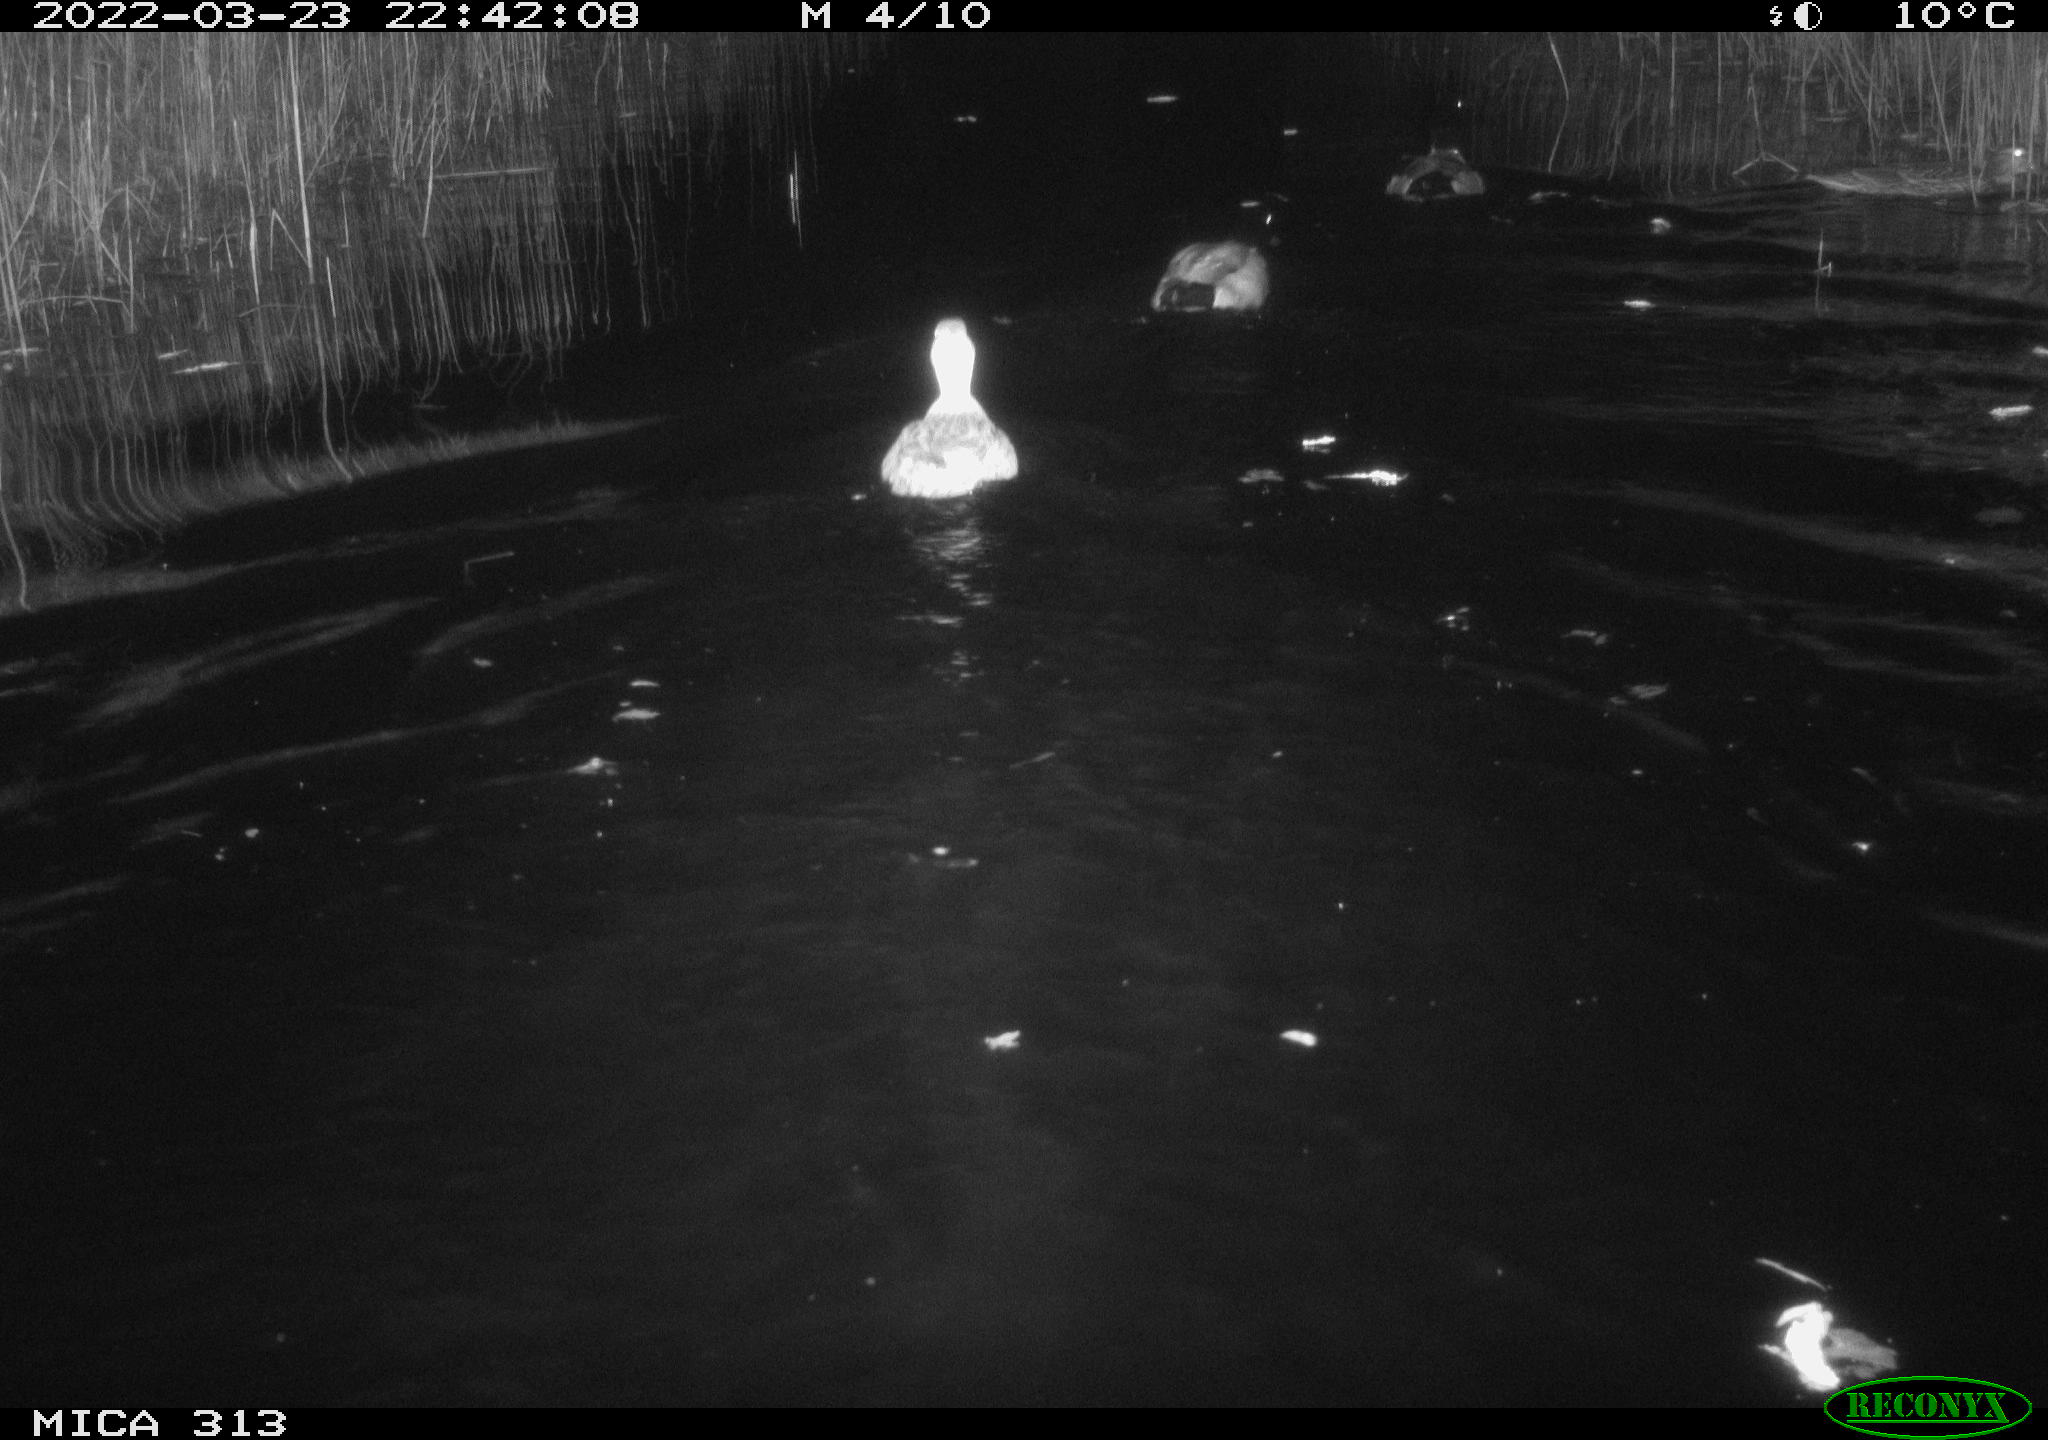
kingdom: Animalia
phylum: Chordata
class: Aves
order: Anseriformes
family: Anatidae
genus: Anas
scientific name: Anas platyrhynchos
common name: Mallard
